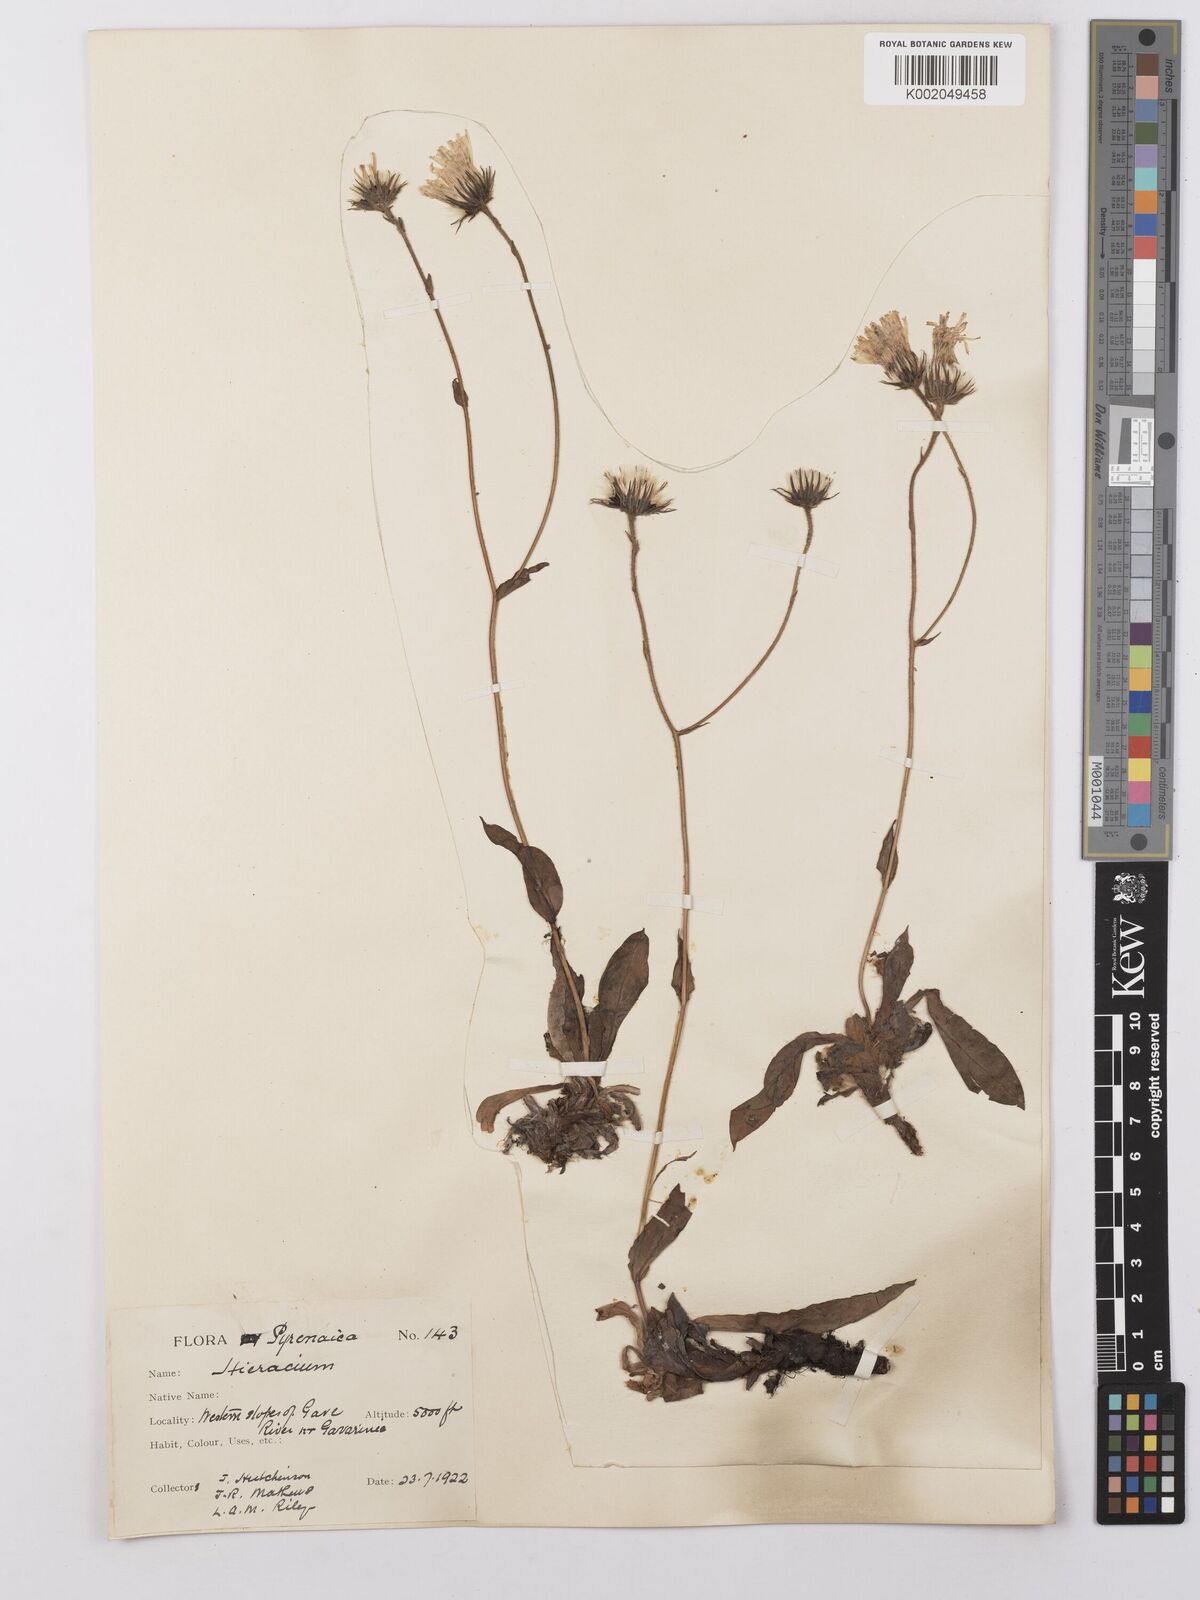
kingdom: Plantae
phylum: Tracheophyta
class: Magnoliopsida
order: Asterales
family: Asteraceae
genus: Hieracium
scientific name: Hieracium ramondii
